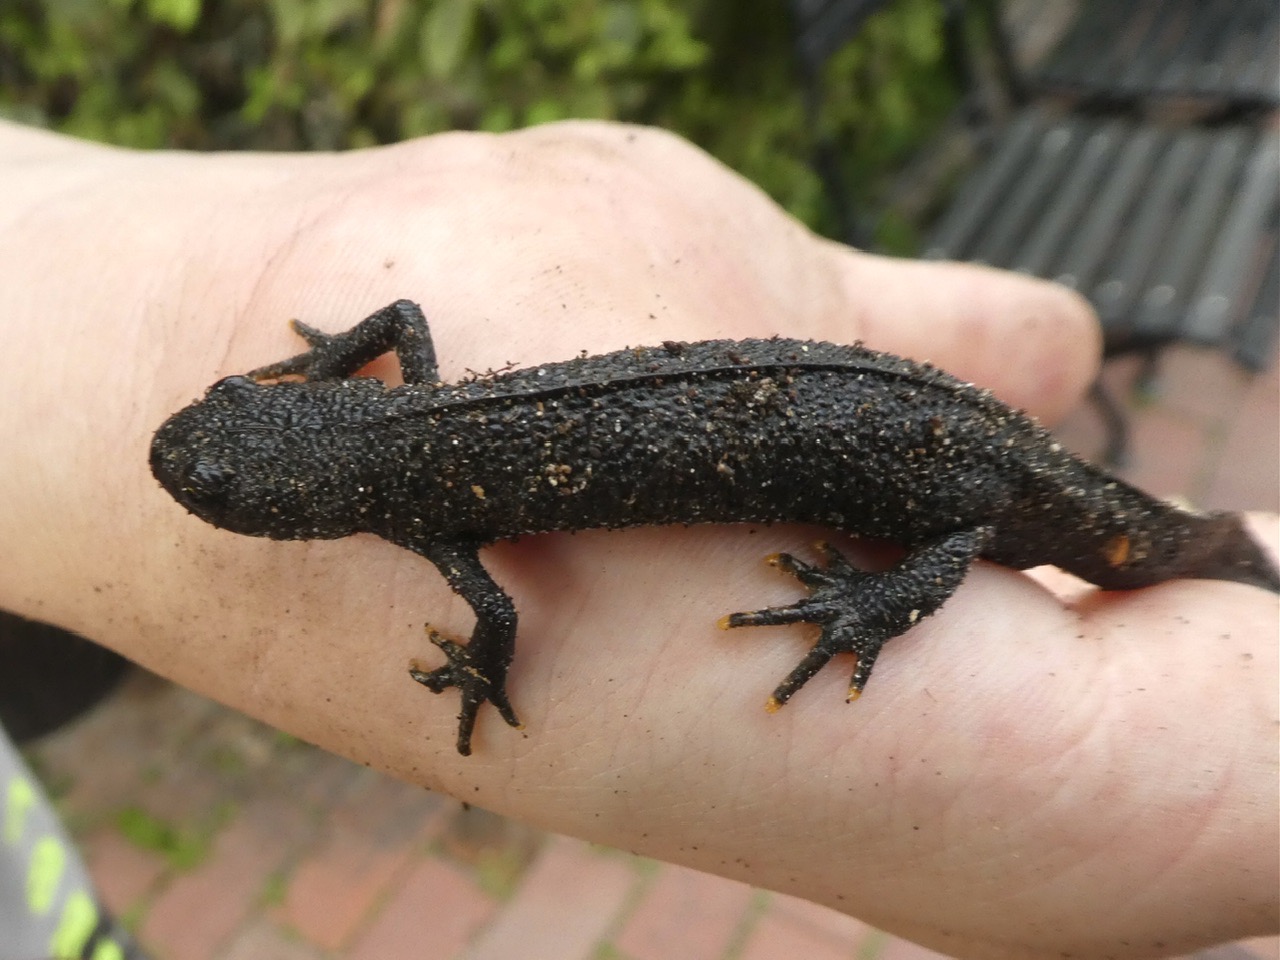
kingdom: Animalia
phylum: Chordata
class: Amphibia
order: Caudata
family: Salamandridae
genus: Triturus
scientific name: Triturus cristatus
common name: Stor vandsalamander
